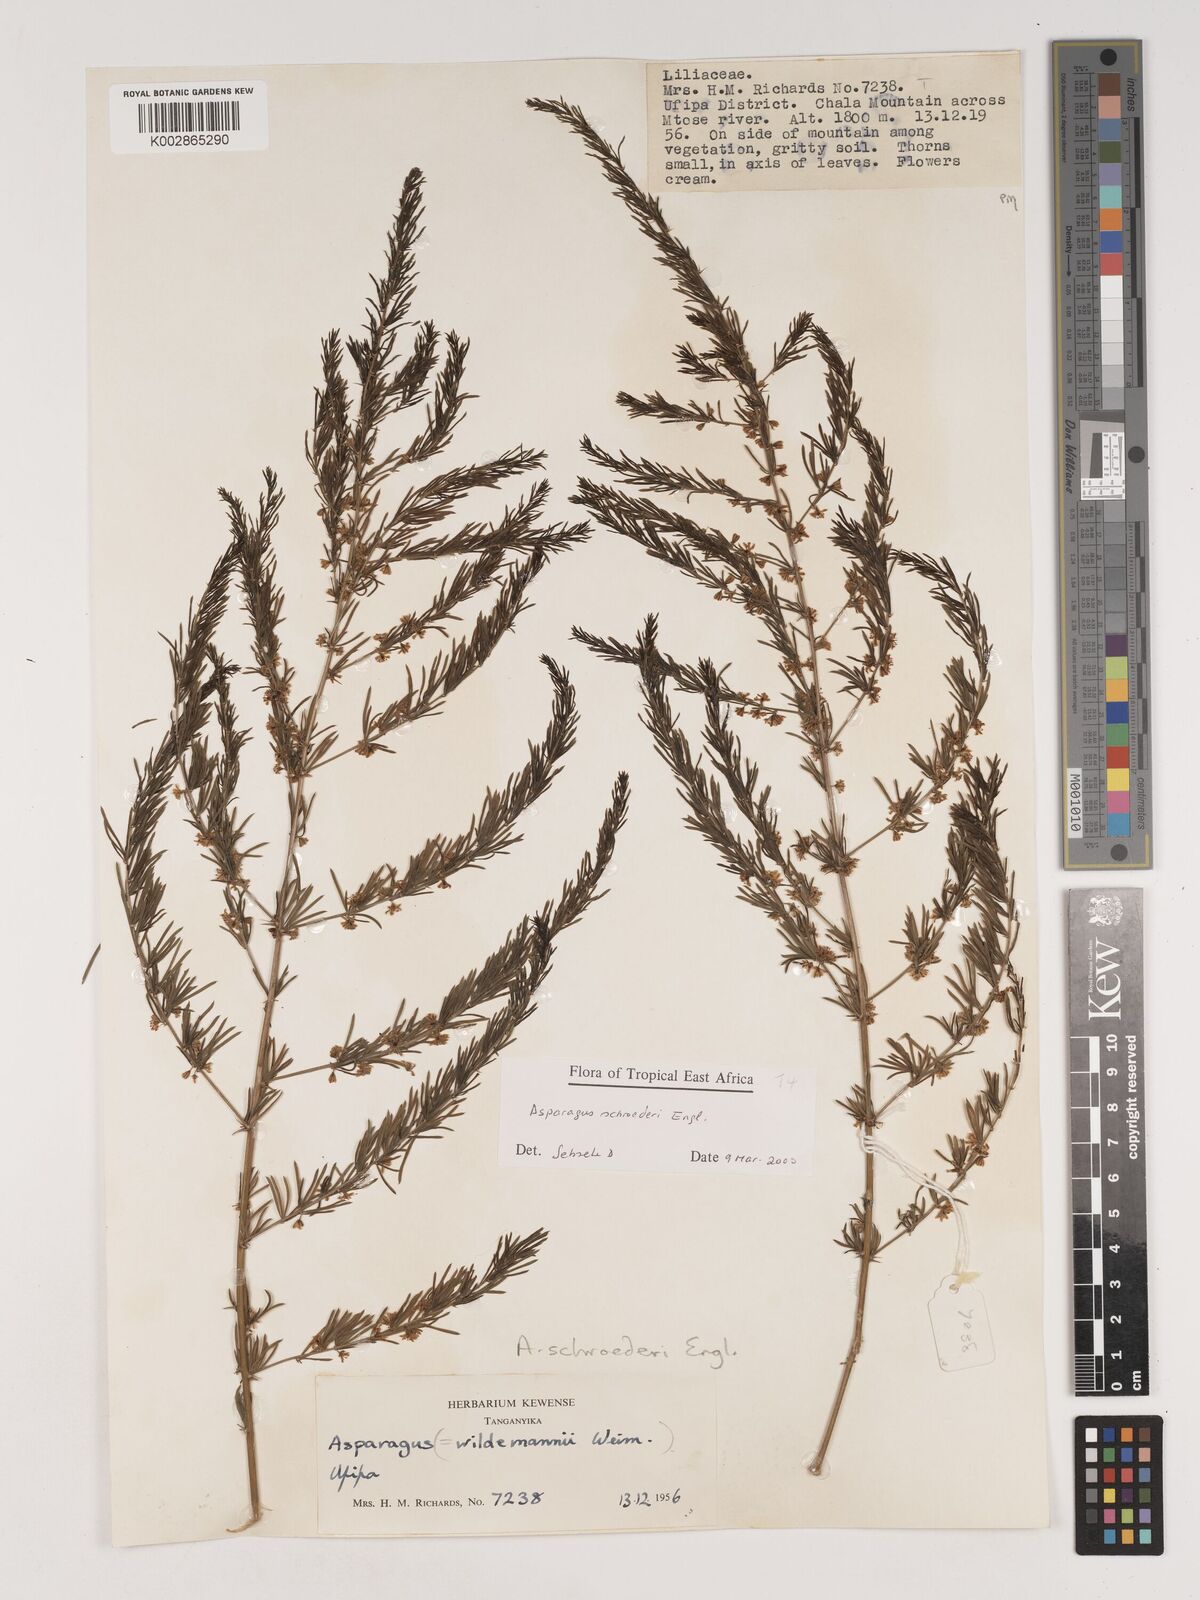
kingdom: Plantae
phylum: Tracheophyta
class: Liliopsida
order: Asparagales
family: Asparagaceae
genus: Asparagus
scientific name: Asparagus schroederi
